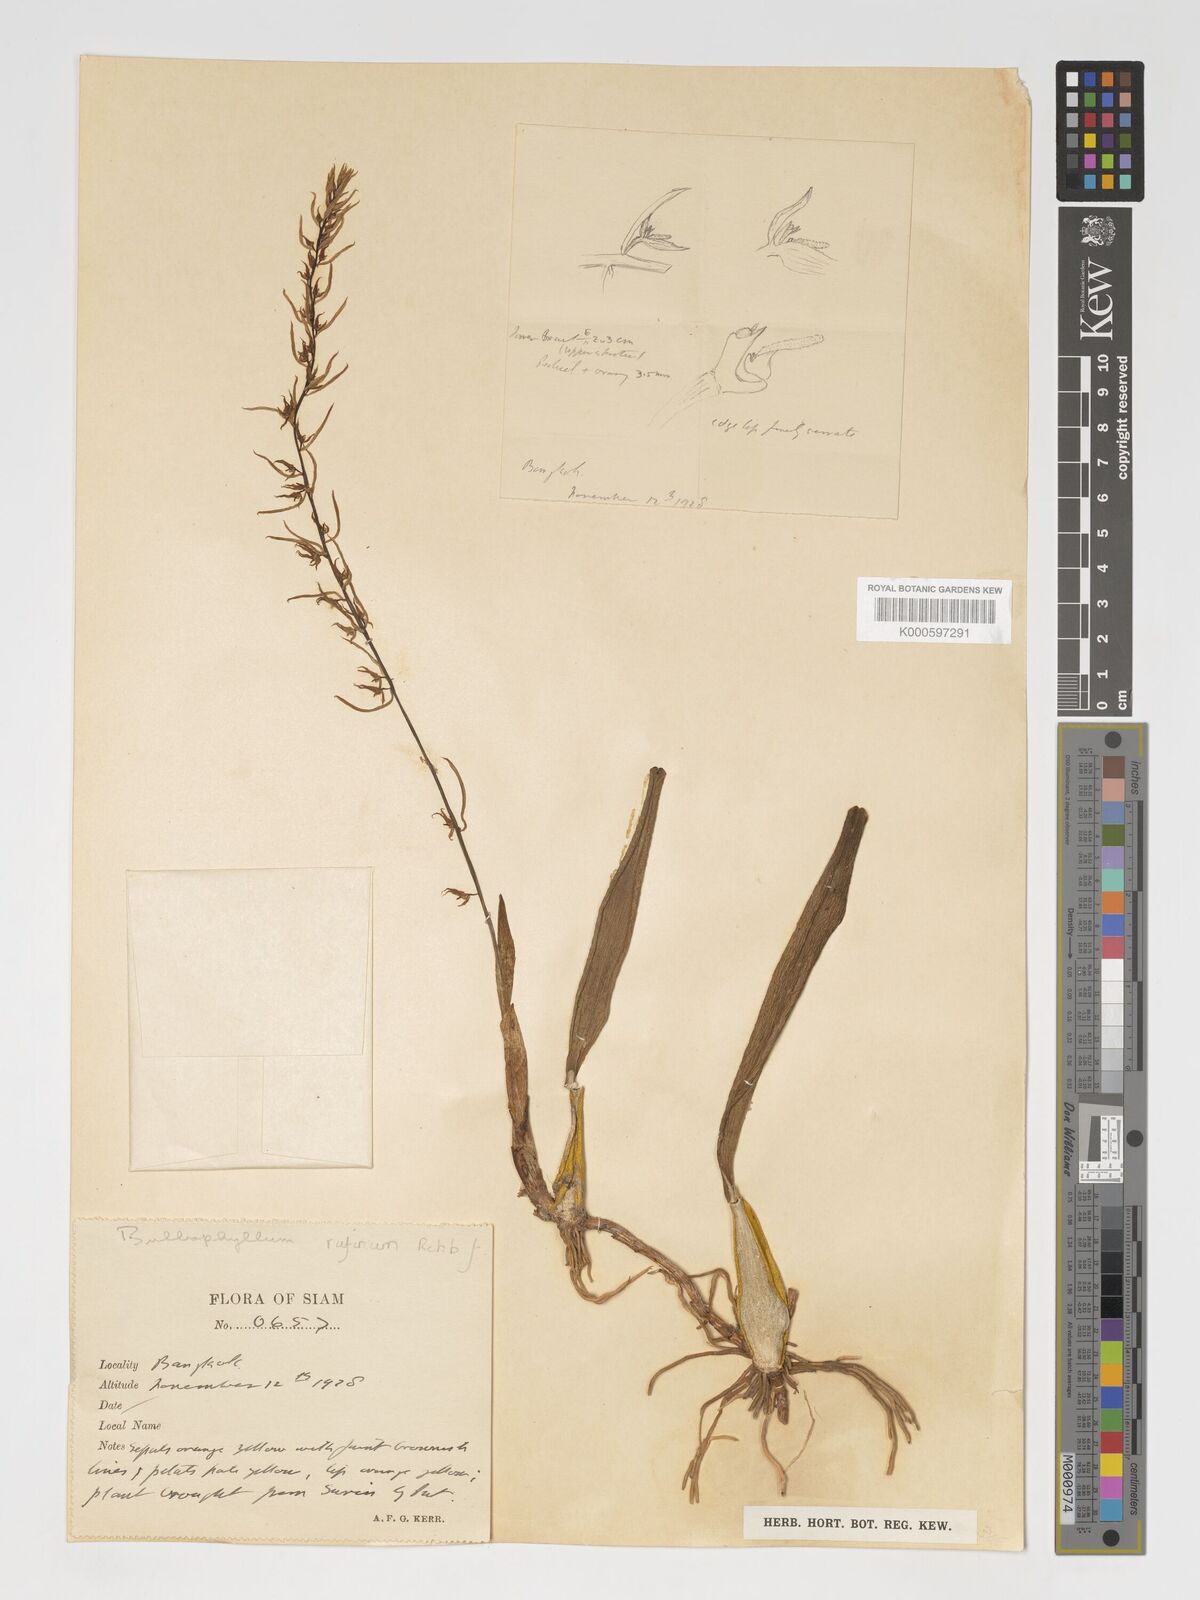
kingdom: Plantae
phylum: Tracheophyta
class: Liliopsida
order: Asparagales
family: Orchidaceae
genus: Bulbophyllum
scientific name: Bulbophyllum rufinum
